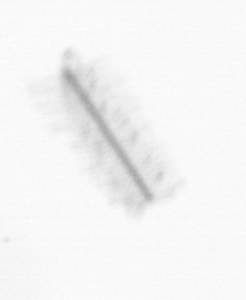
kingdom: Chromista
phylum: Ochrophyta
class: Bacillariophyceae
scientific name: Bacillariophyceae
